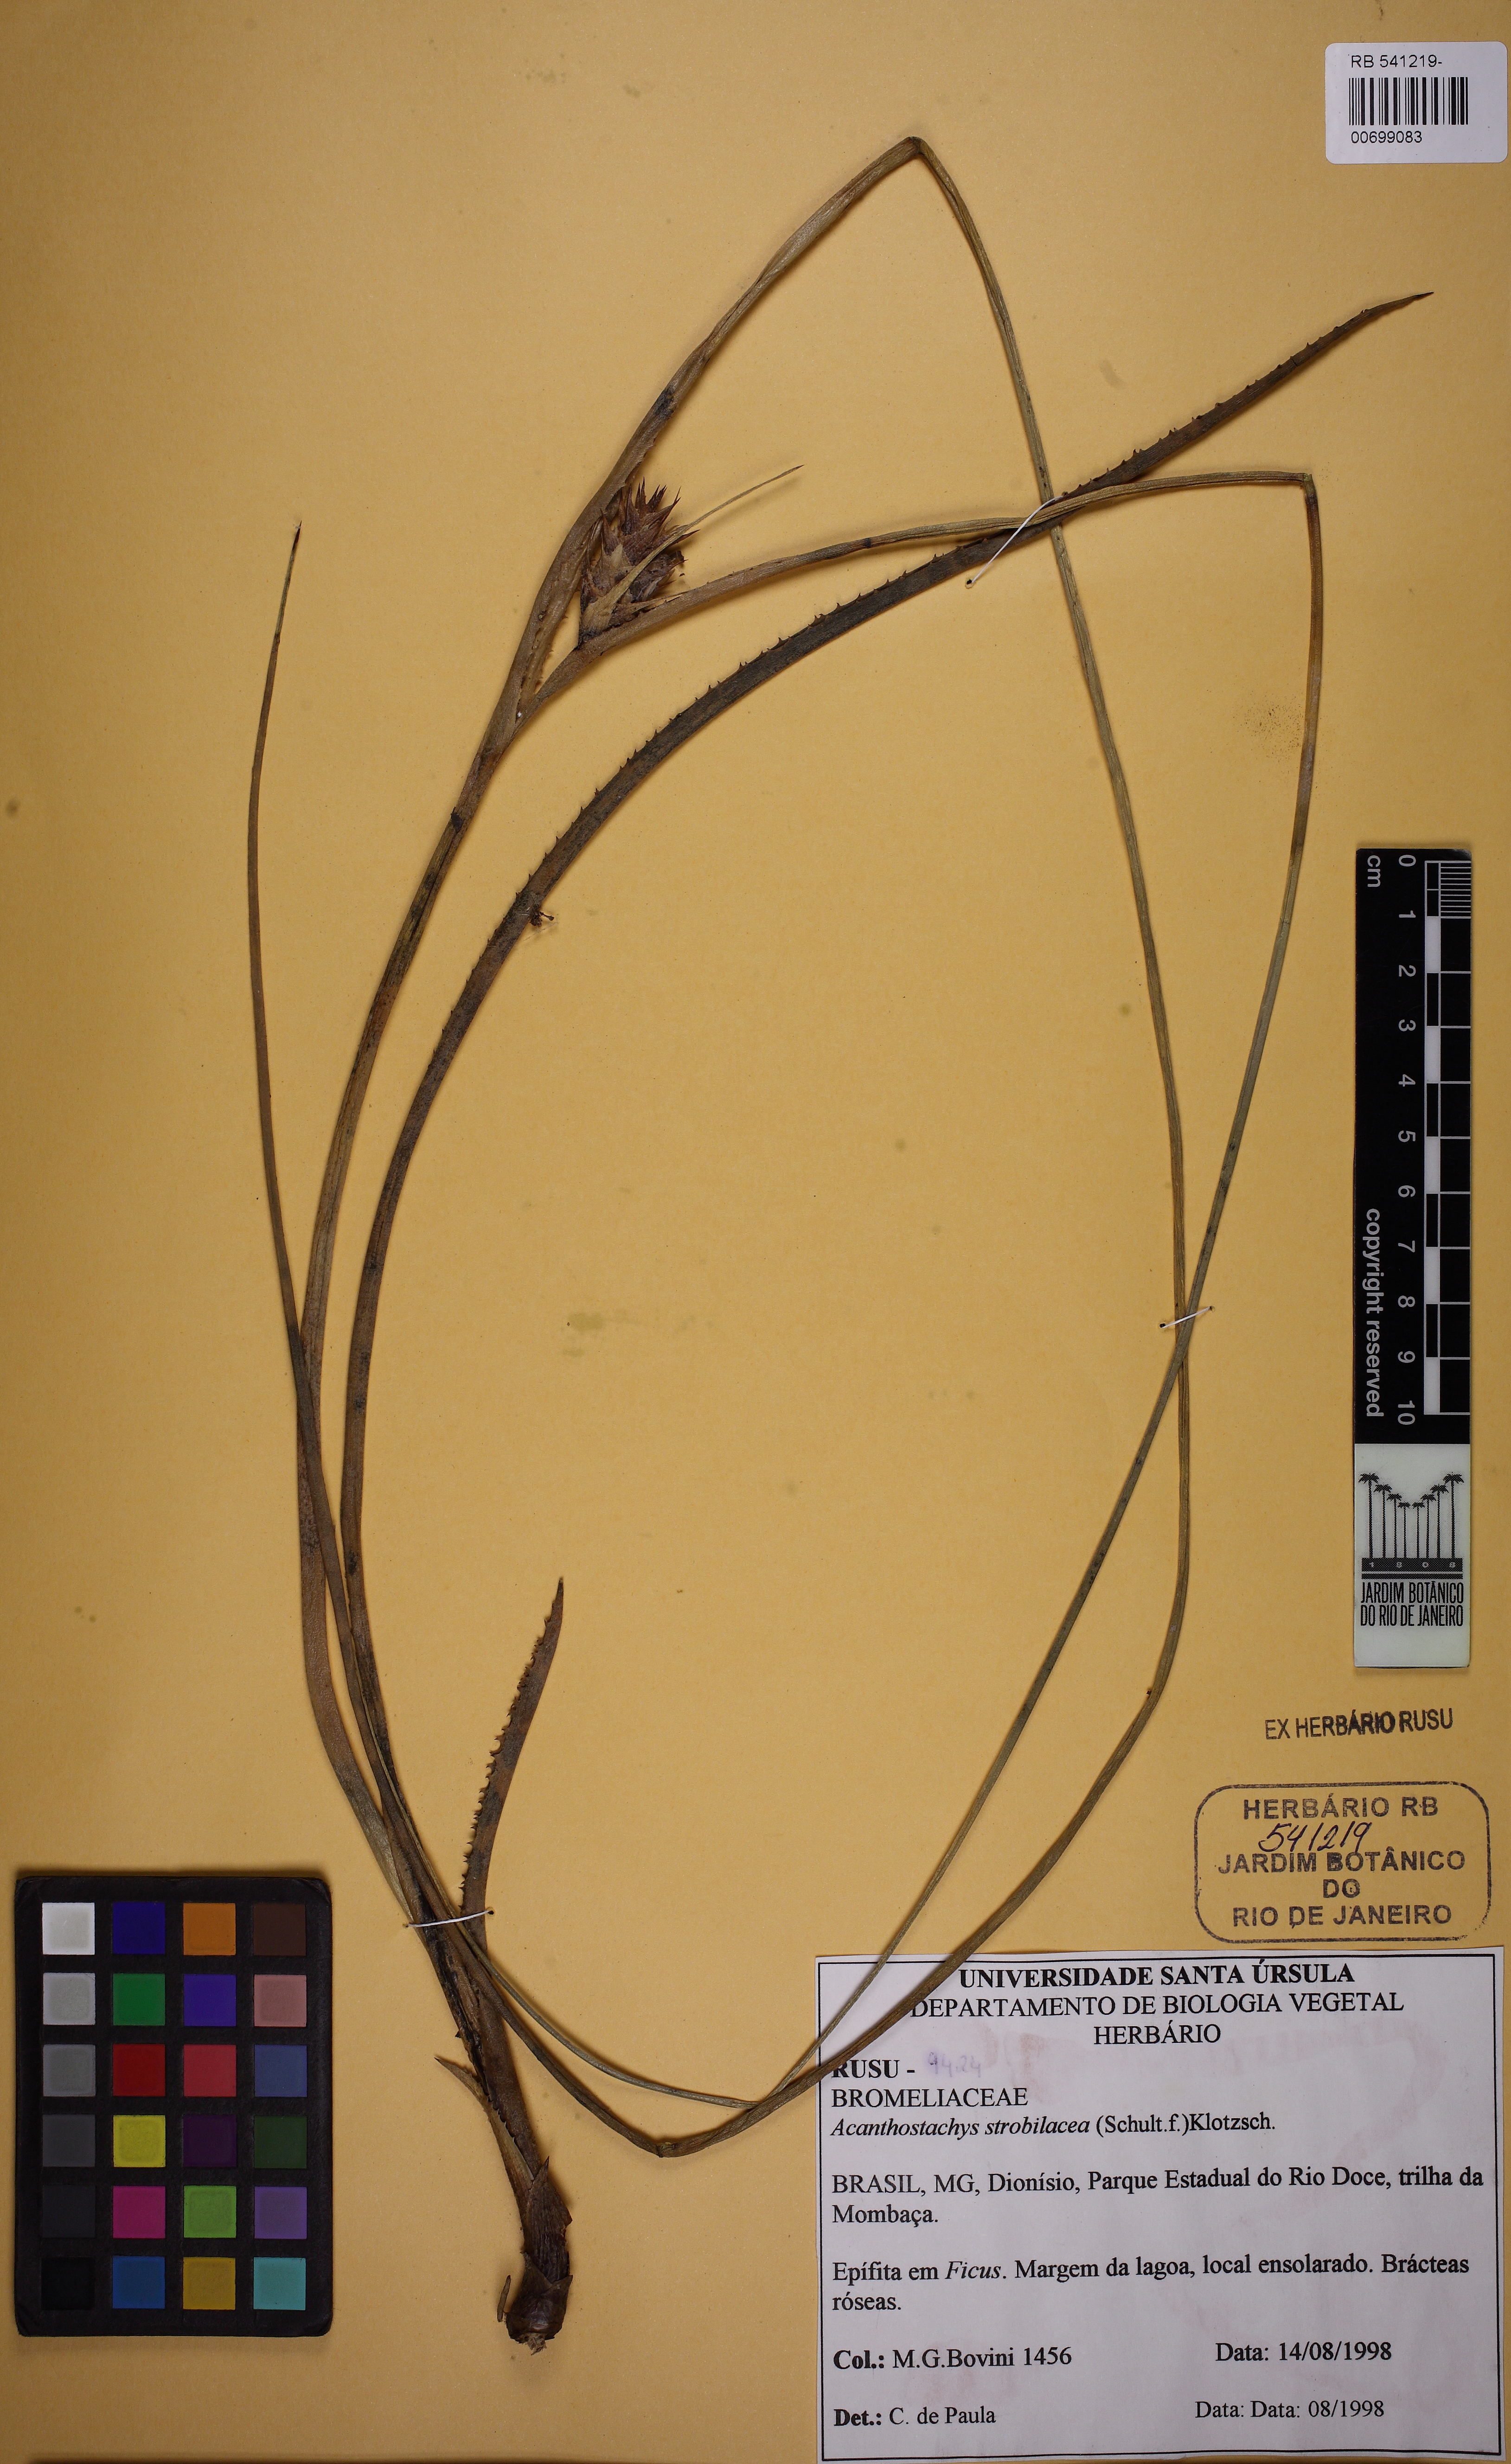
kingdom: Plantae
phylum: Tracheophyta
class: Liliopsida
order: Poales
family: Bromeliaceae
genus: Acanthostachys
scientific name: Acanthostachys strobilacea
